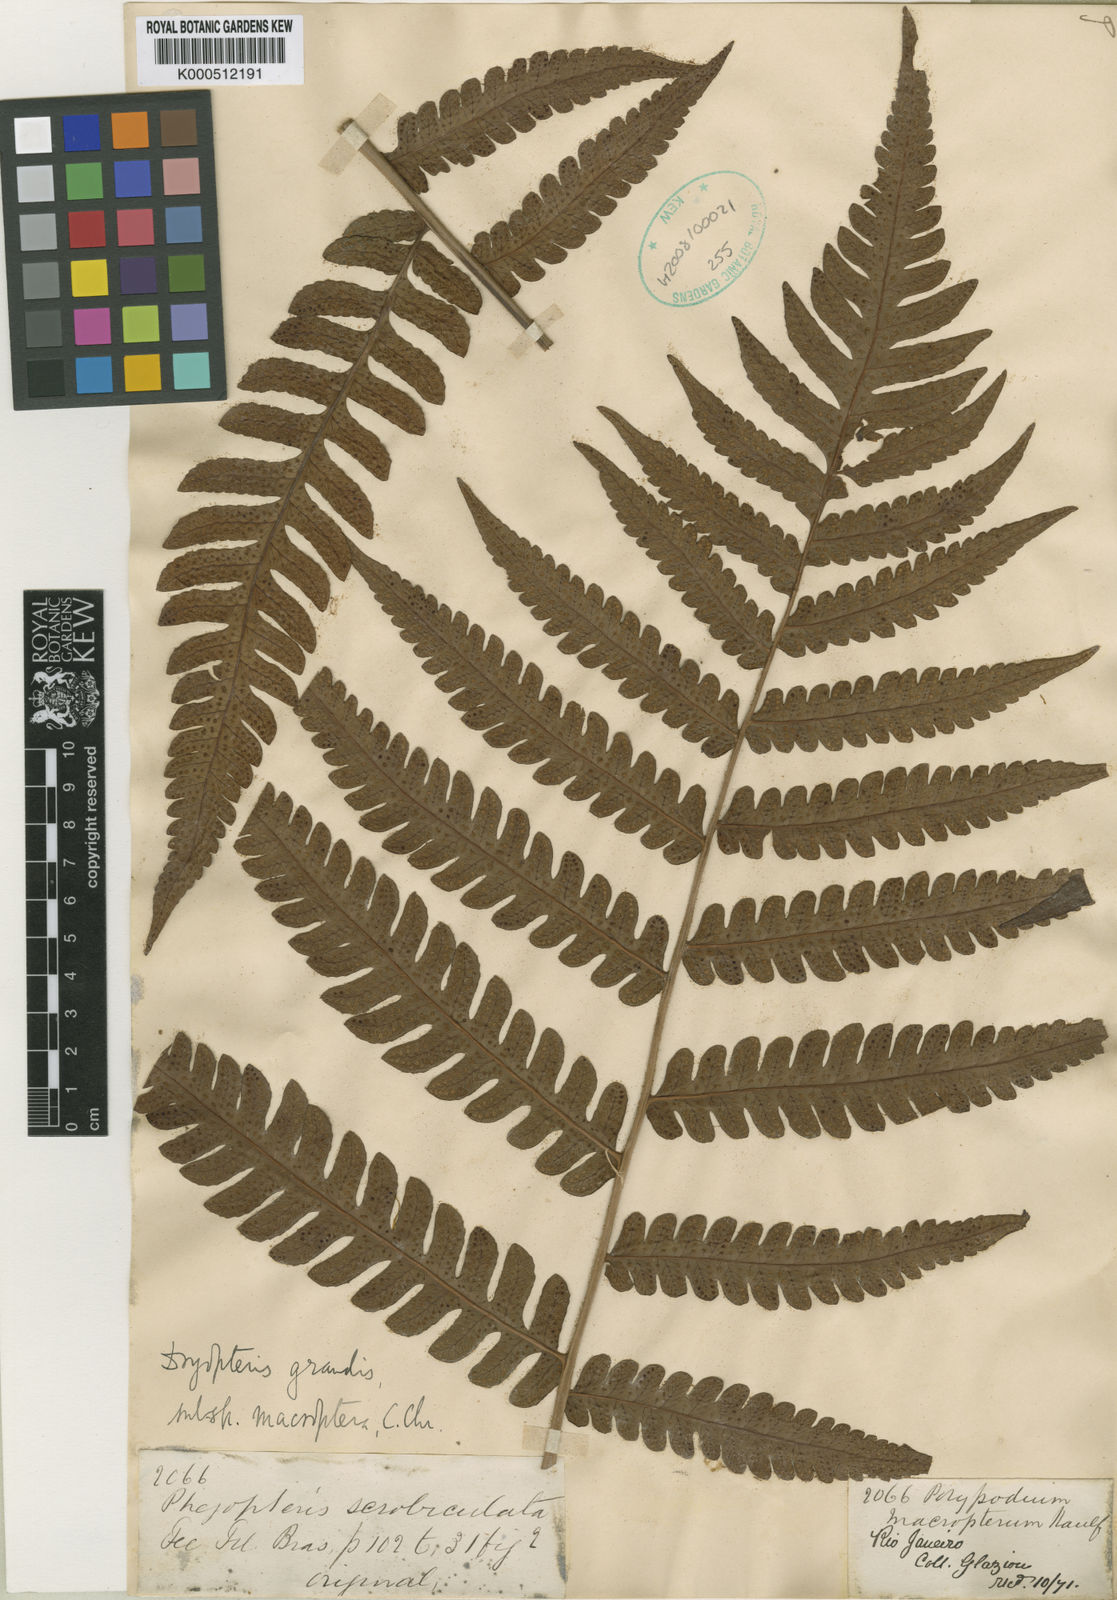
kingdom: Plantae
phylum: Tracheophyta
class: Polypodiopsida
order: Polypodiales
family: Dryopteridaceae
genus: Megalastrum
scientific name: Megalastrum grande
